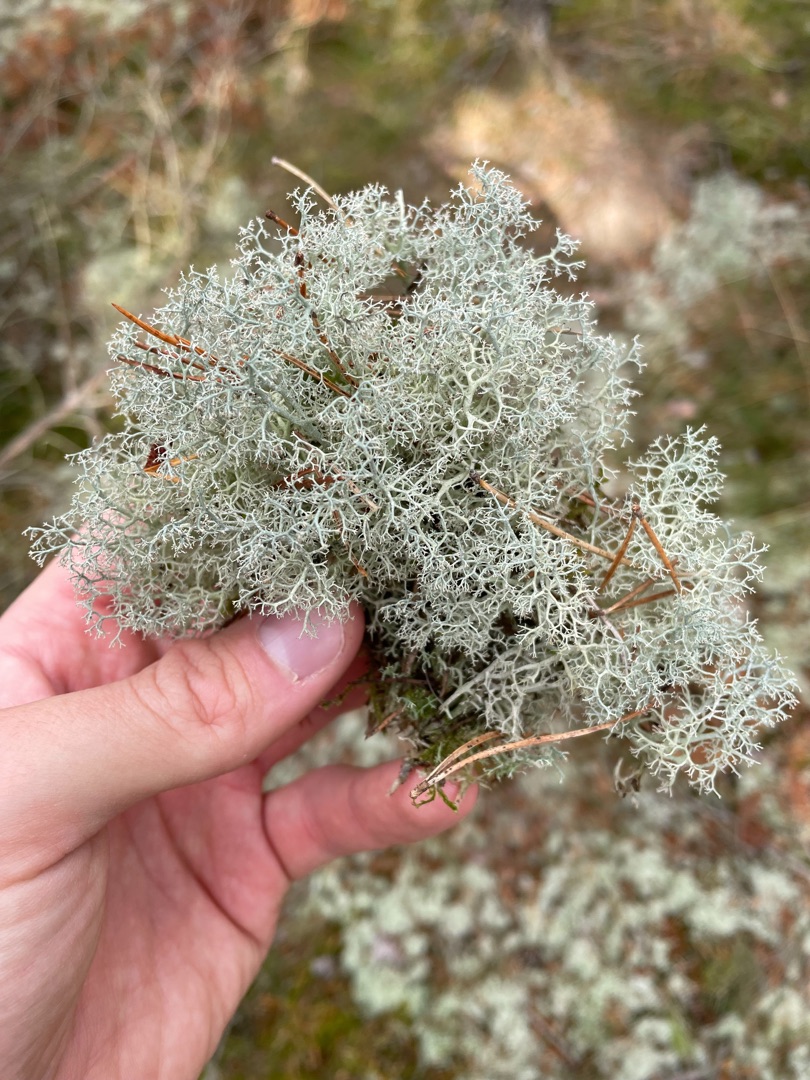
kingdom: Fungi
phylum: Ascomycota
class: Lecanoromycetes
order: Lecanorales
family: Cladoniaceae
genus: Cladonia
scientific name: Cladonia portentosa
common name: Hede-rensdyrlav
